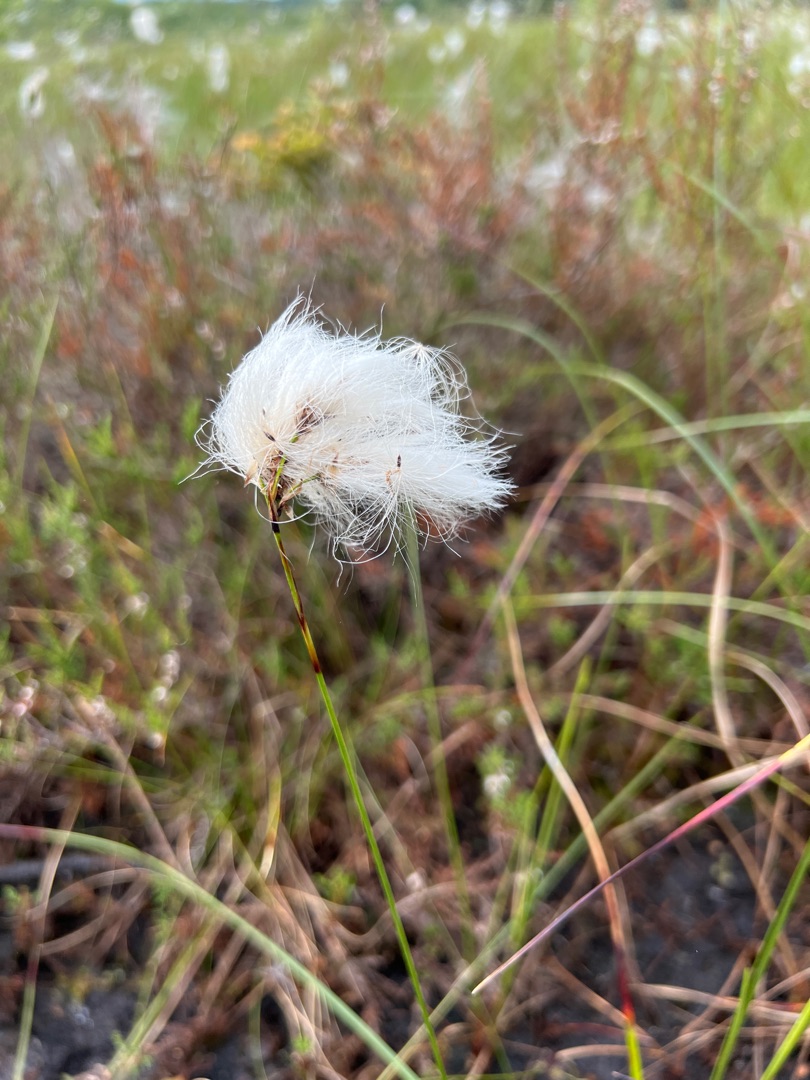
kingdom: Plantae
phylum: Tracheophyta
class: Liliopsida
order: Poales
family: Cyperaceae
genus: Eriophorum
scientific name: Eriophorum angustifolium
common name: Smalbladet kæruld
